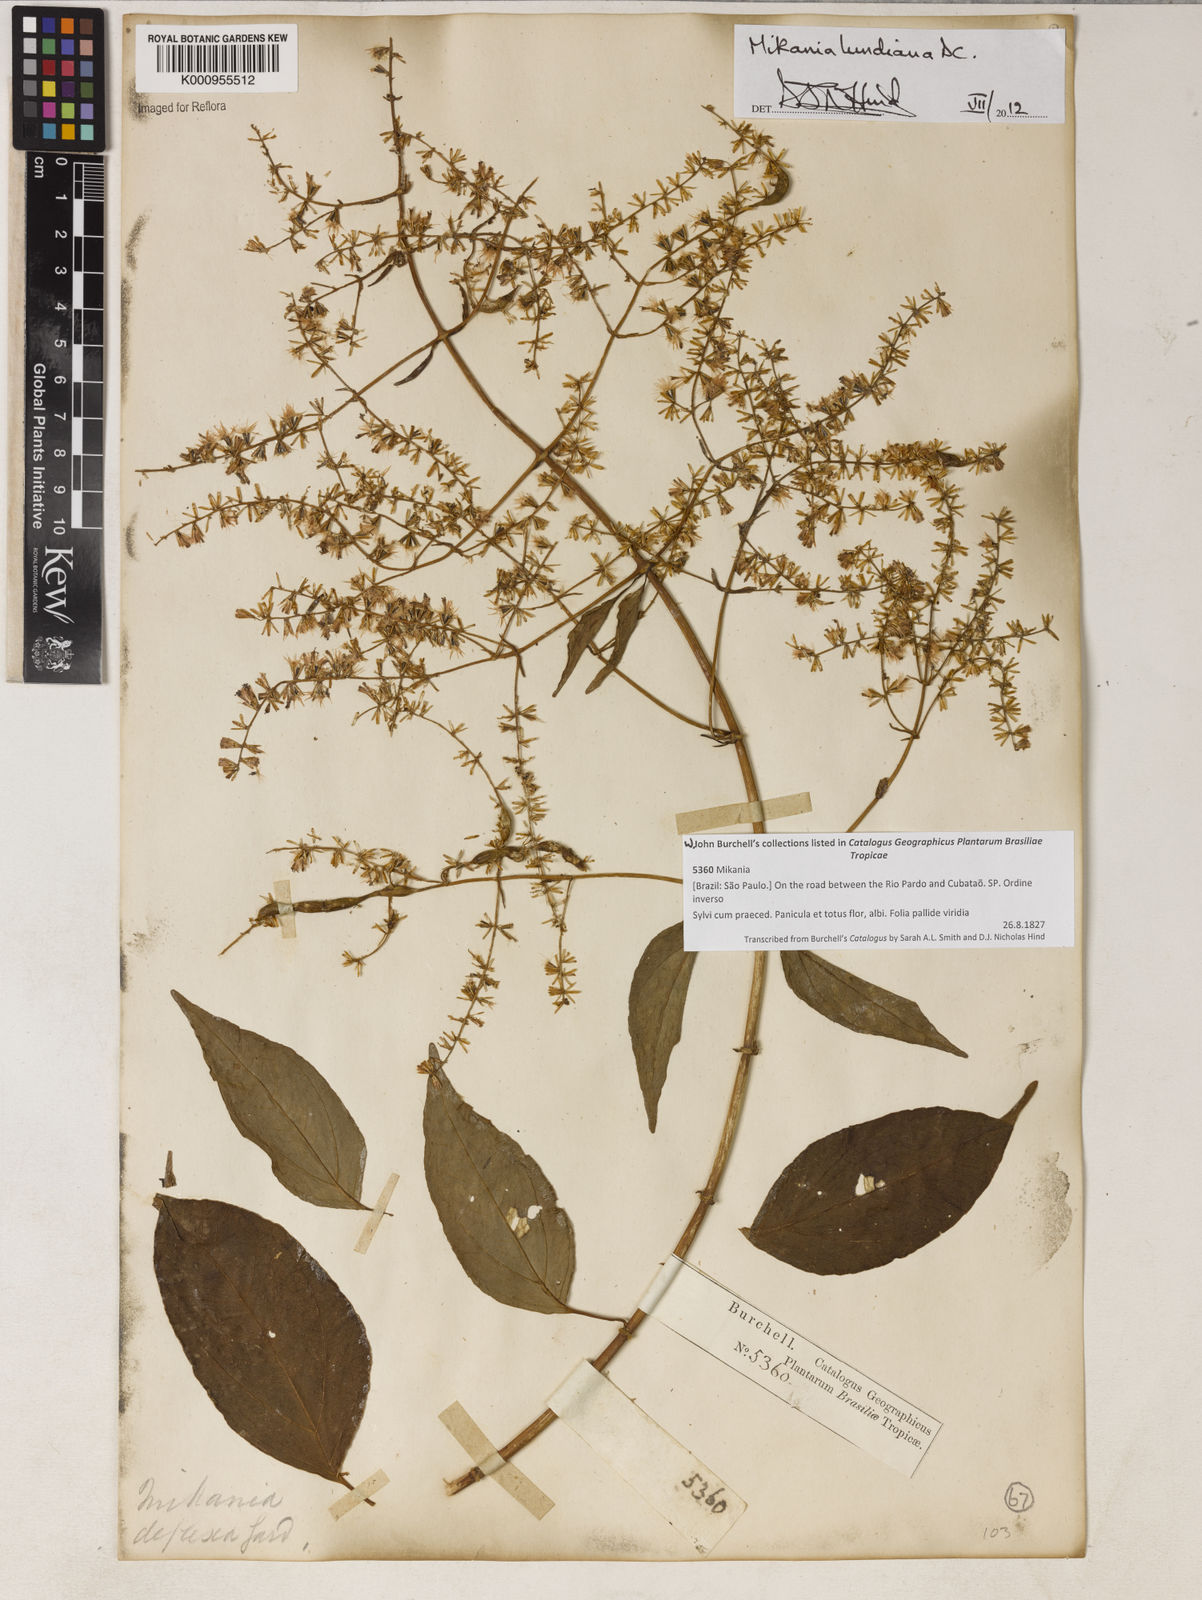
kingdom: Plantae
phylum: Tracheophyta
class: Magnoliopsida
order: Asterales
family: Asteraceae
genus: Mikania
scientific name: Mikania lundiana
